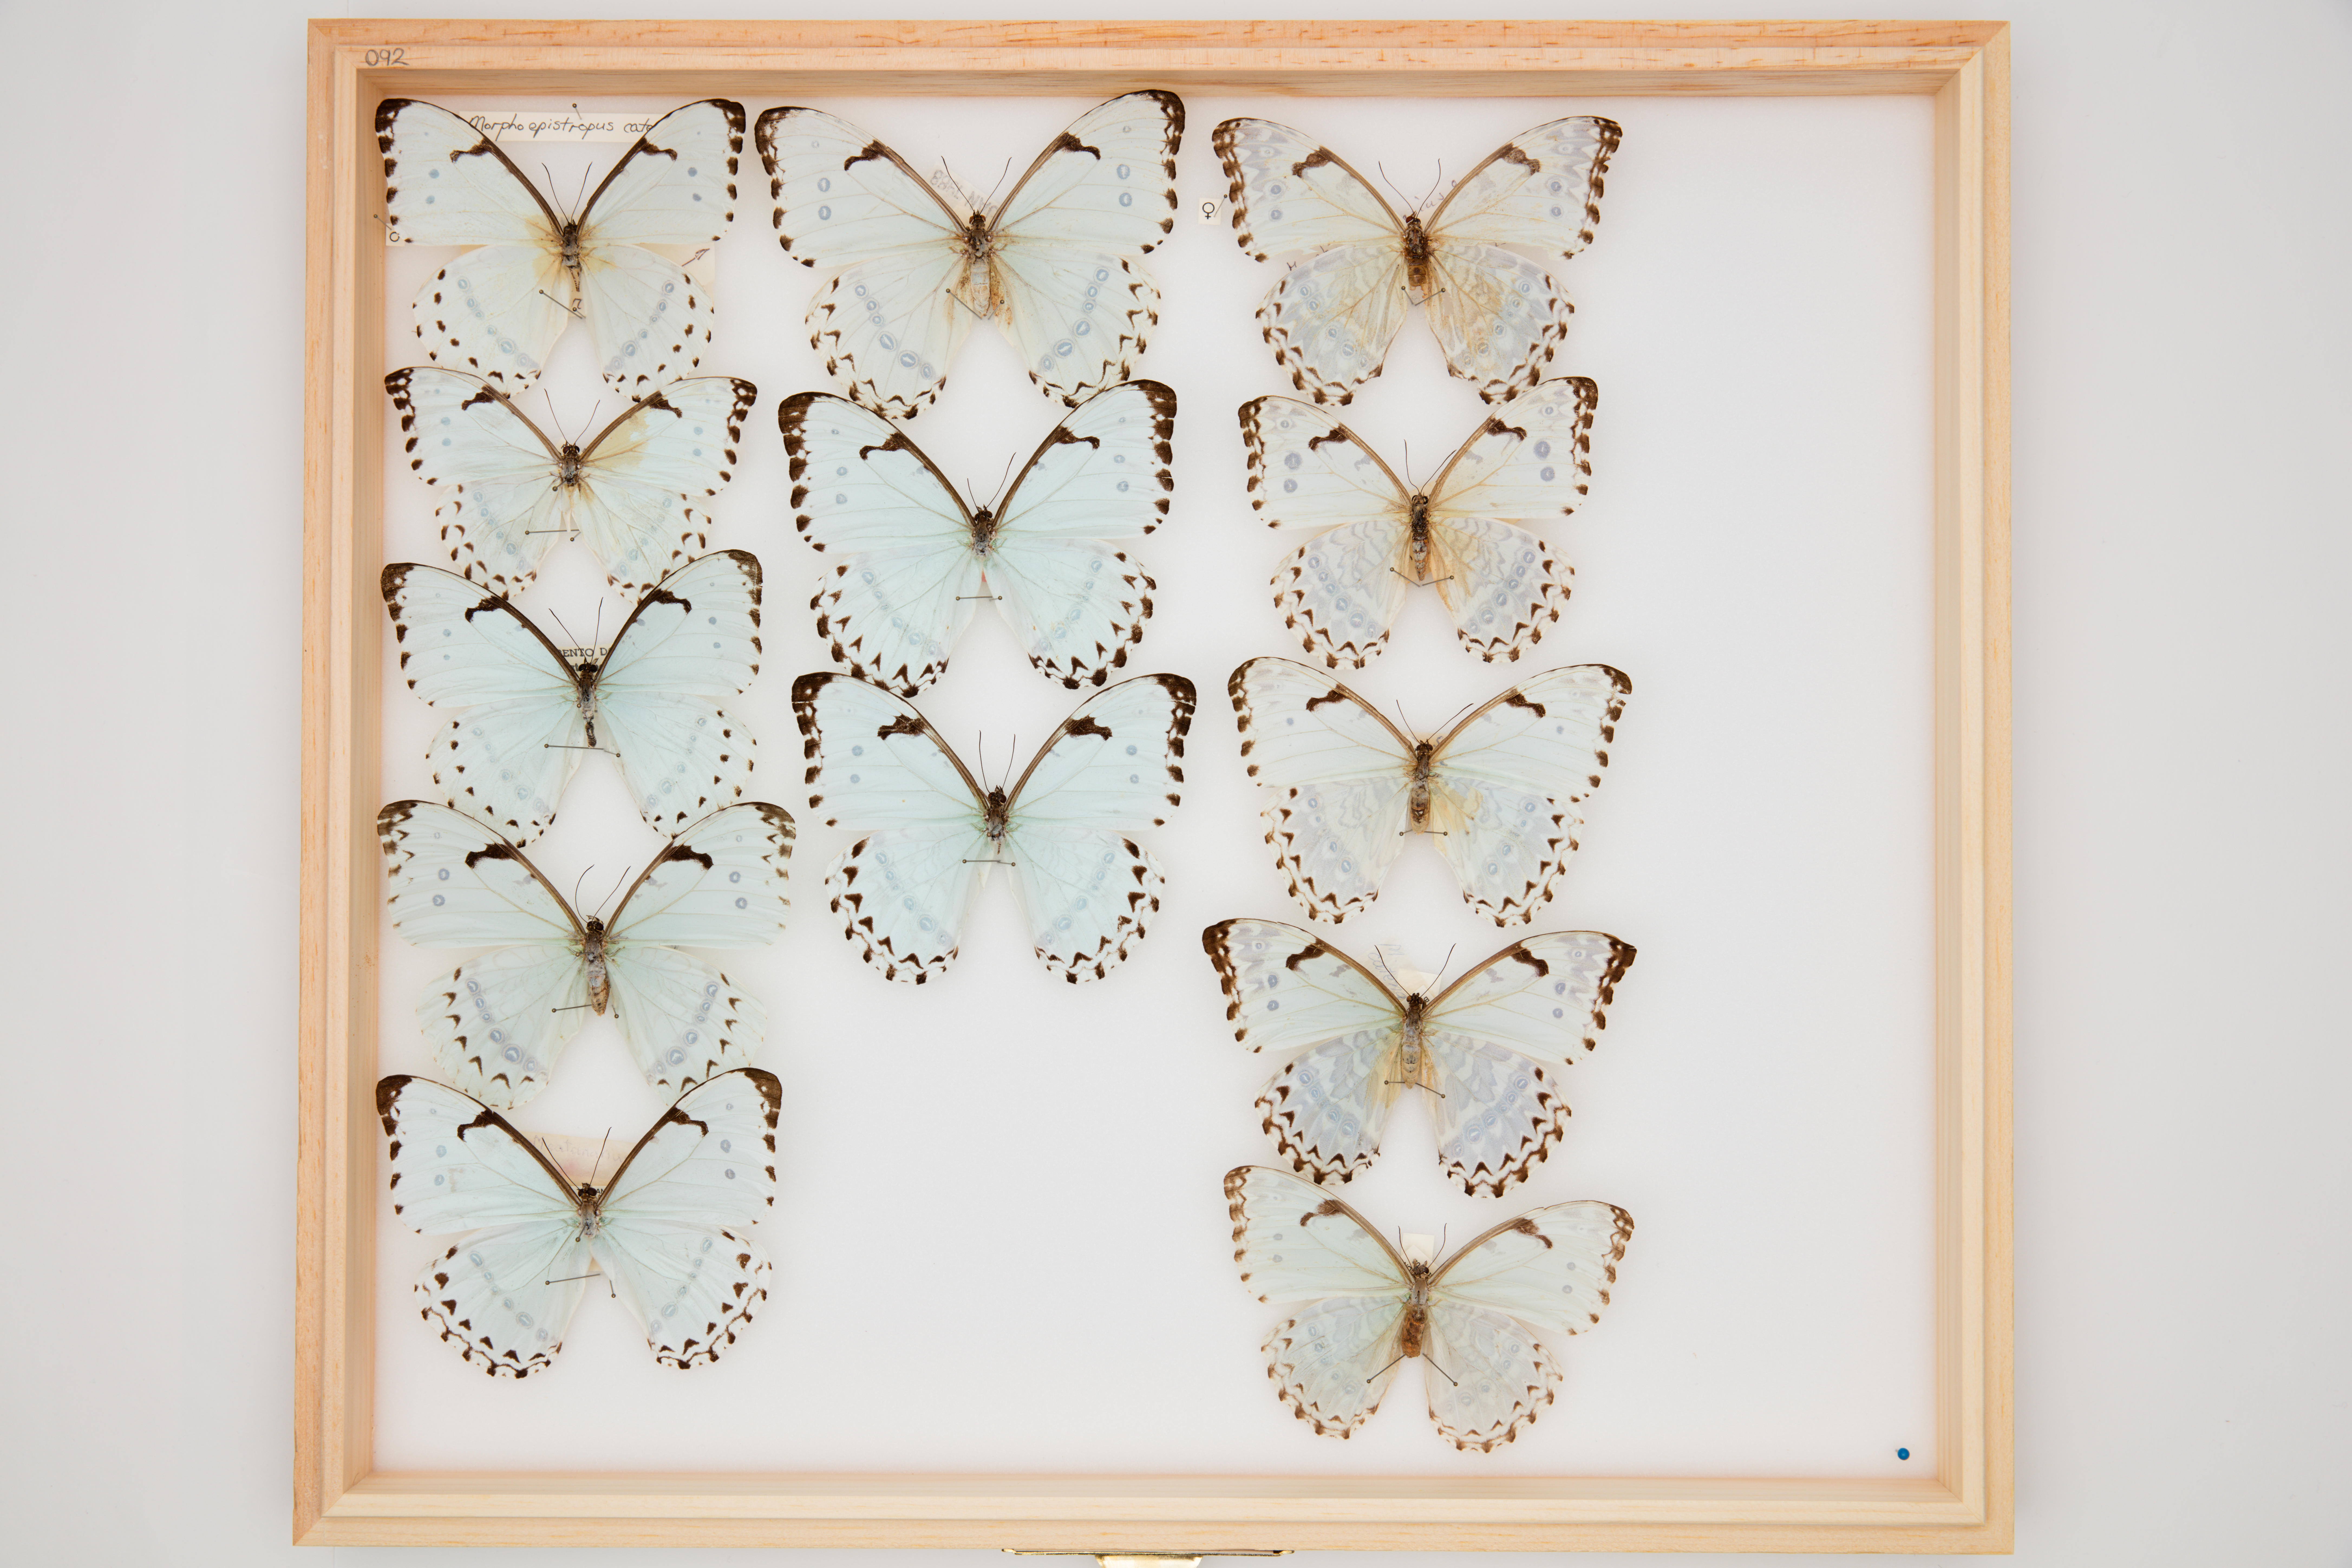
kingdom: Animalia
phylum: Arthropoda
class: Insecta
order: Lepidoptera
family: Nymphalidae
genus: Morpho
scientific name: Morpho epistrophus
